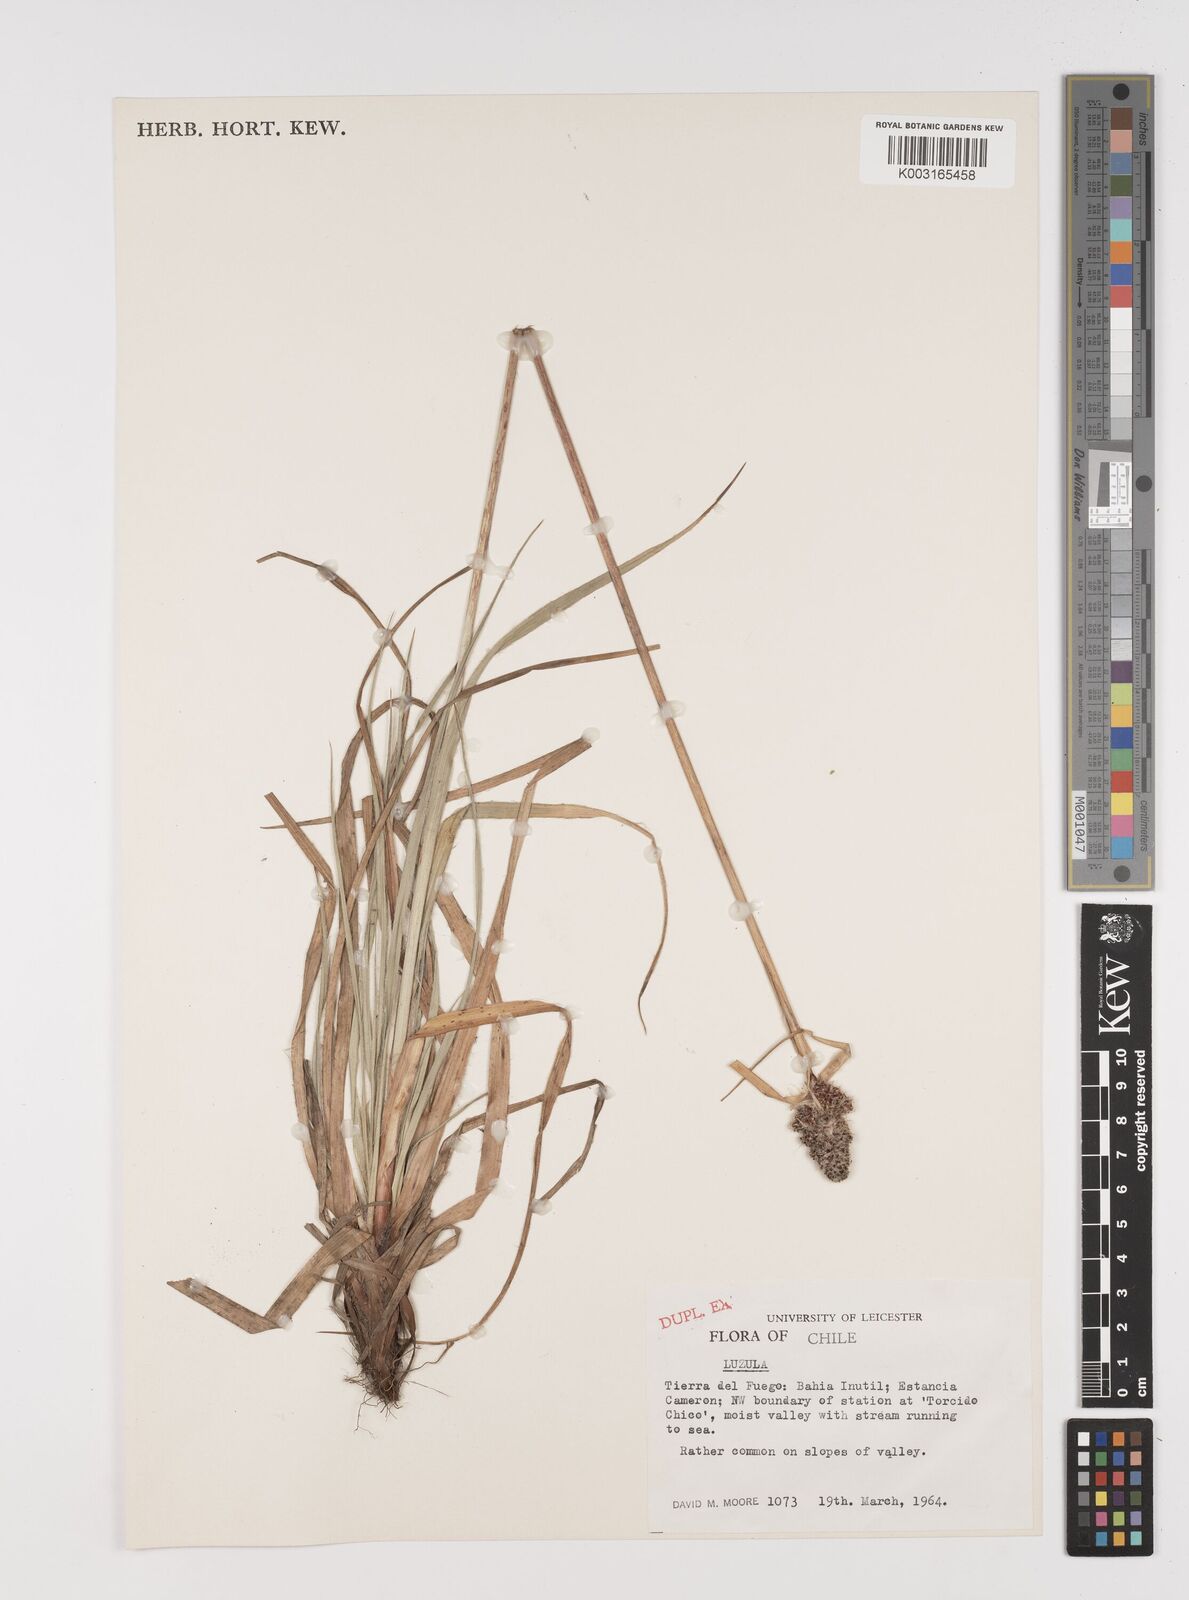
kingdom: Plantae
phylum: Tracheophyta
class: Liliopsida
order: Poales
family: Juncaceae
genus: Luzula
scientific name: Luzula
